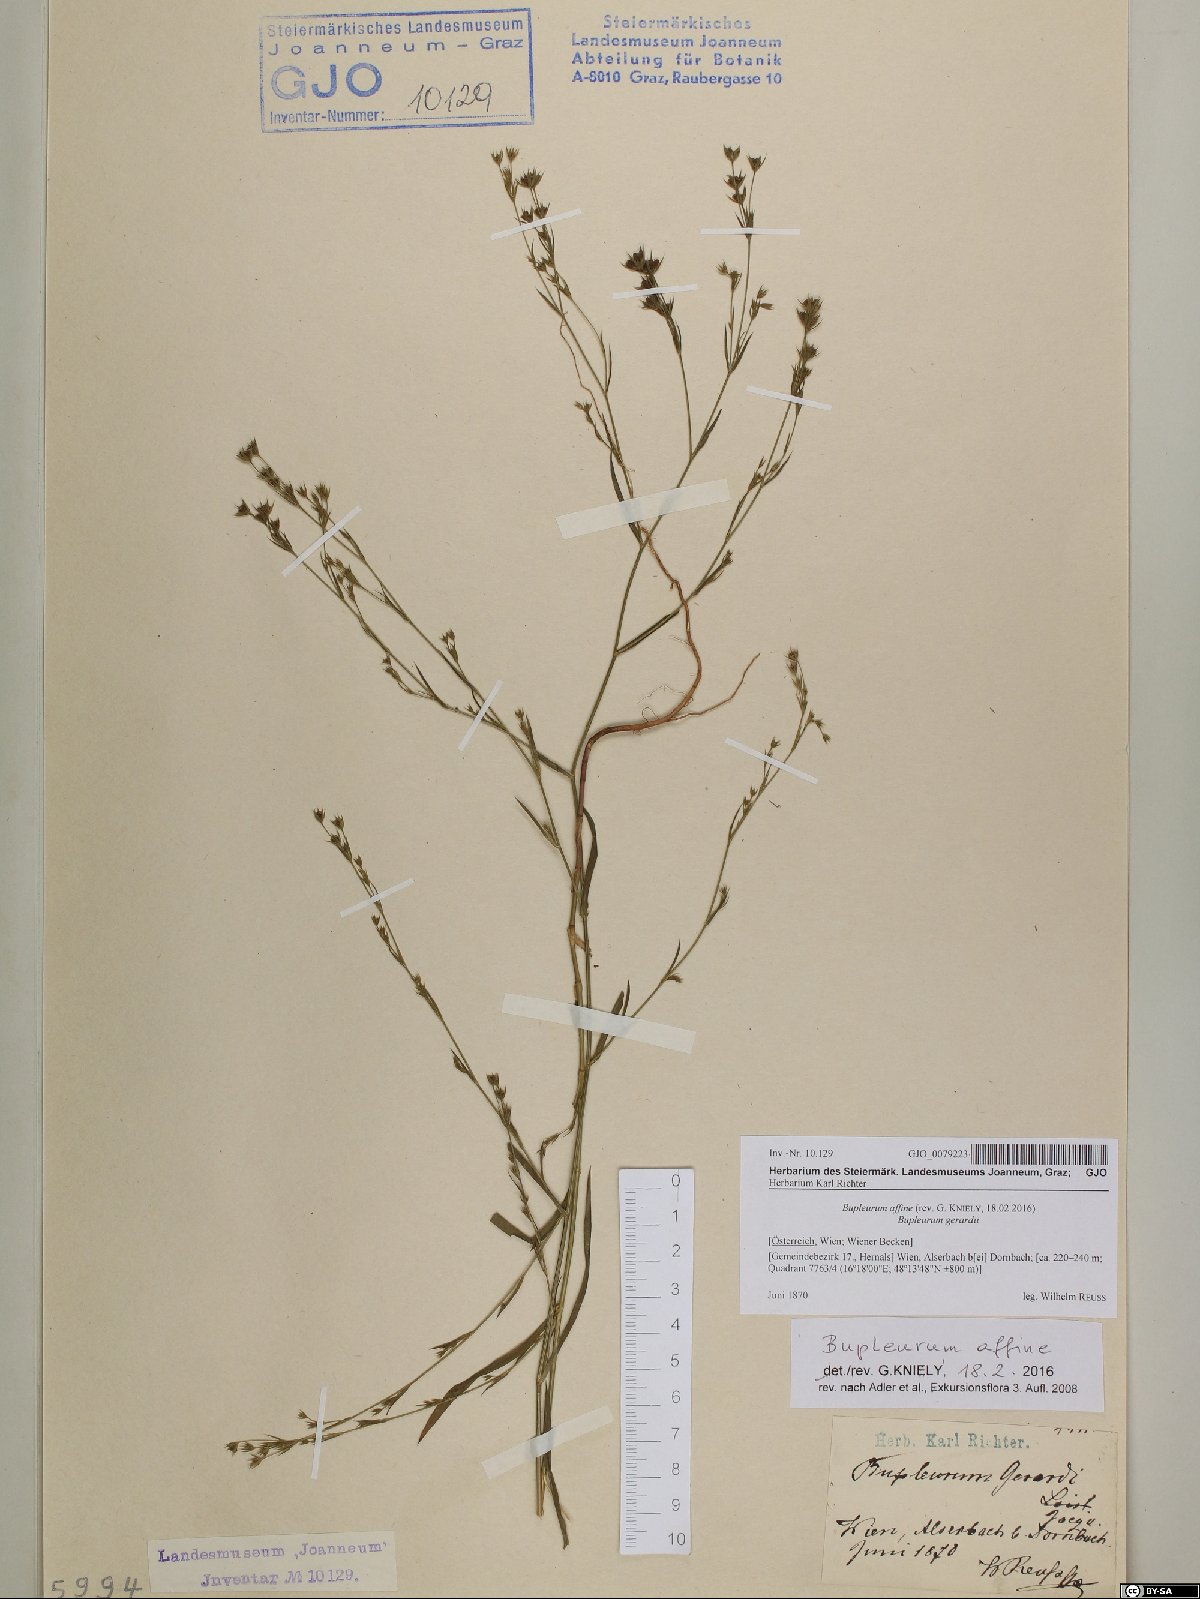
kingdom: Plantae
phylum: Tracheophyta
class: Magnoliopsida
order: Apiales
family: Apiaceae
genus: Bupleurum
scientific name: Bupleurum affine
